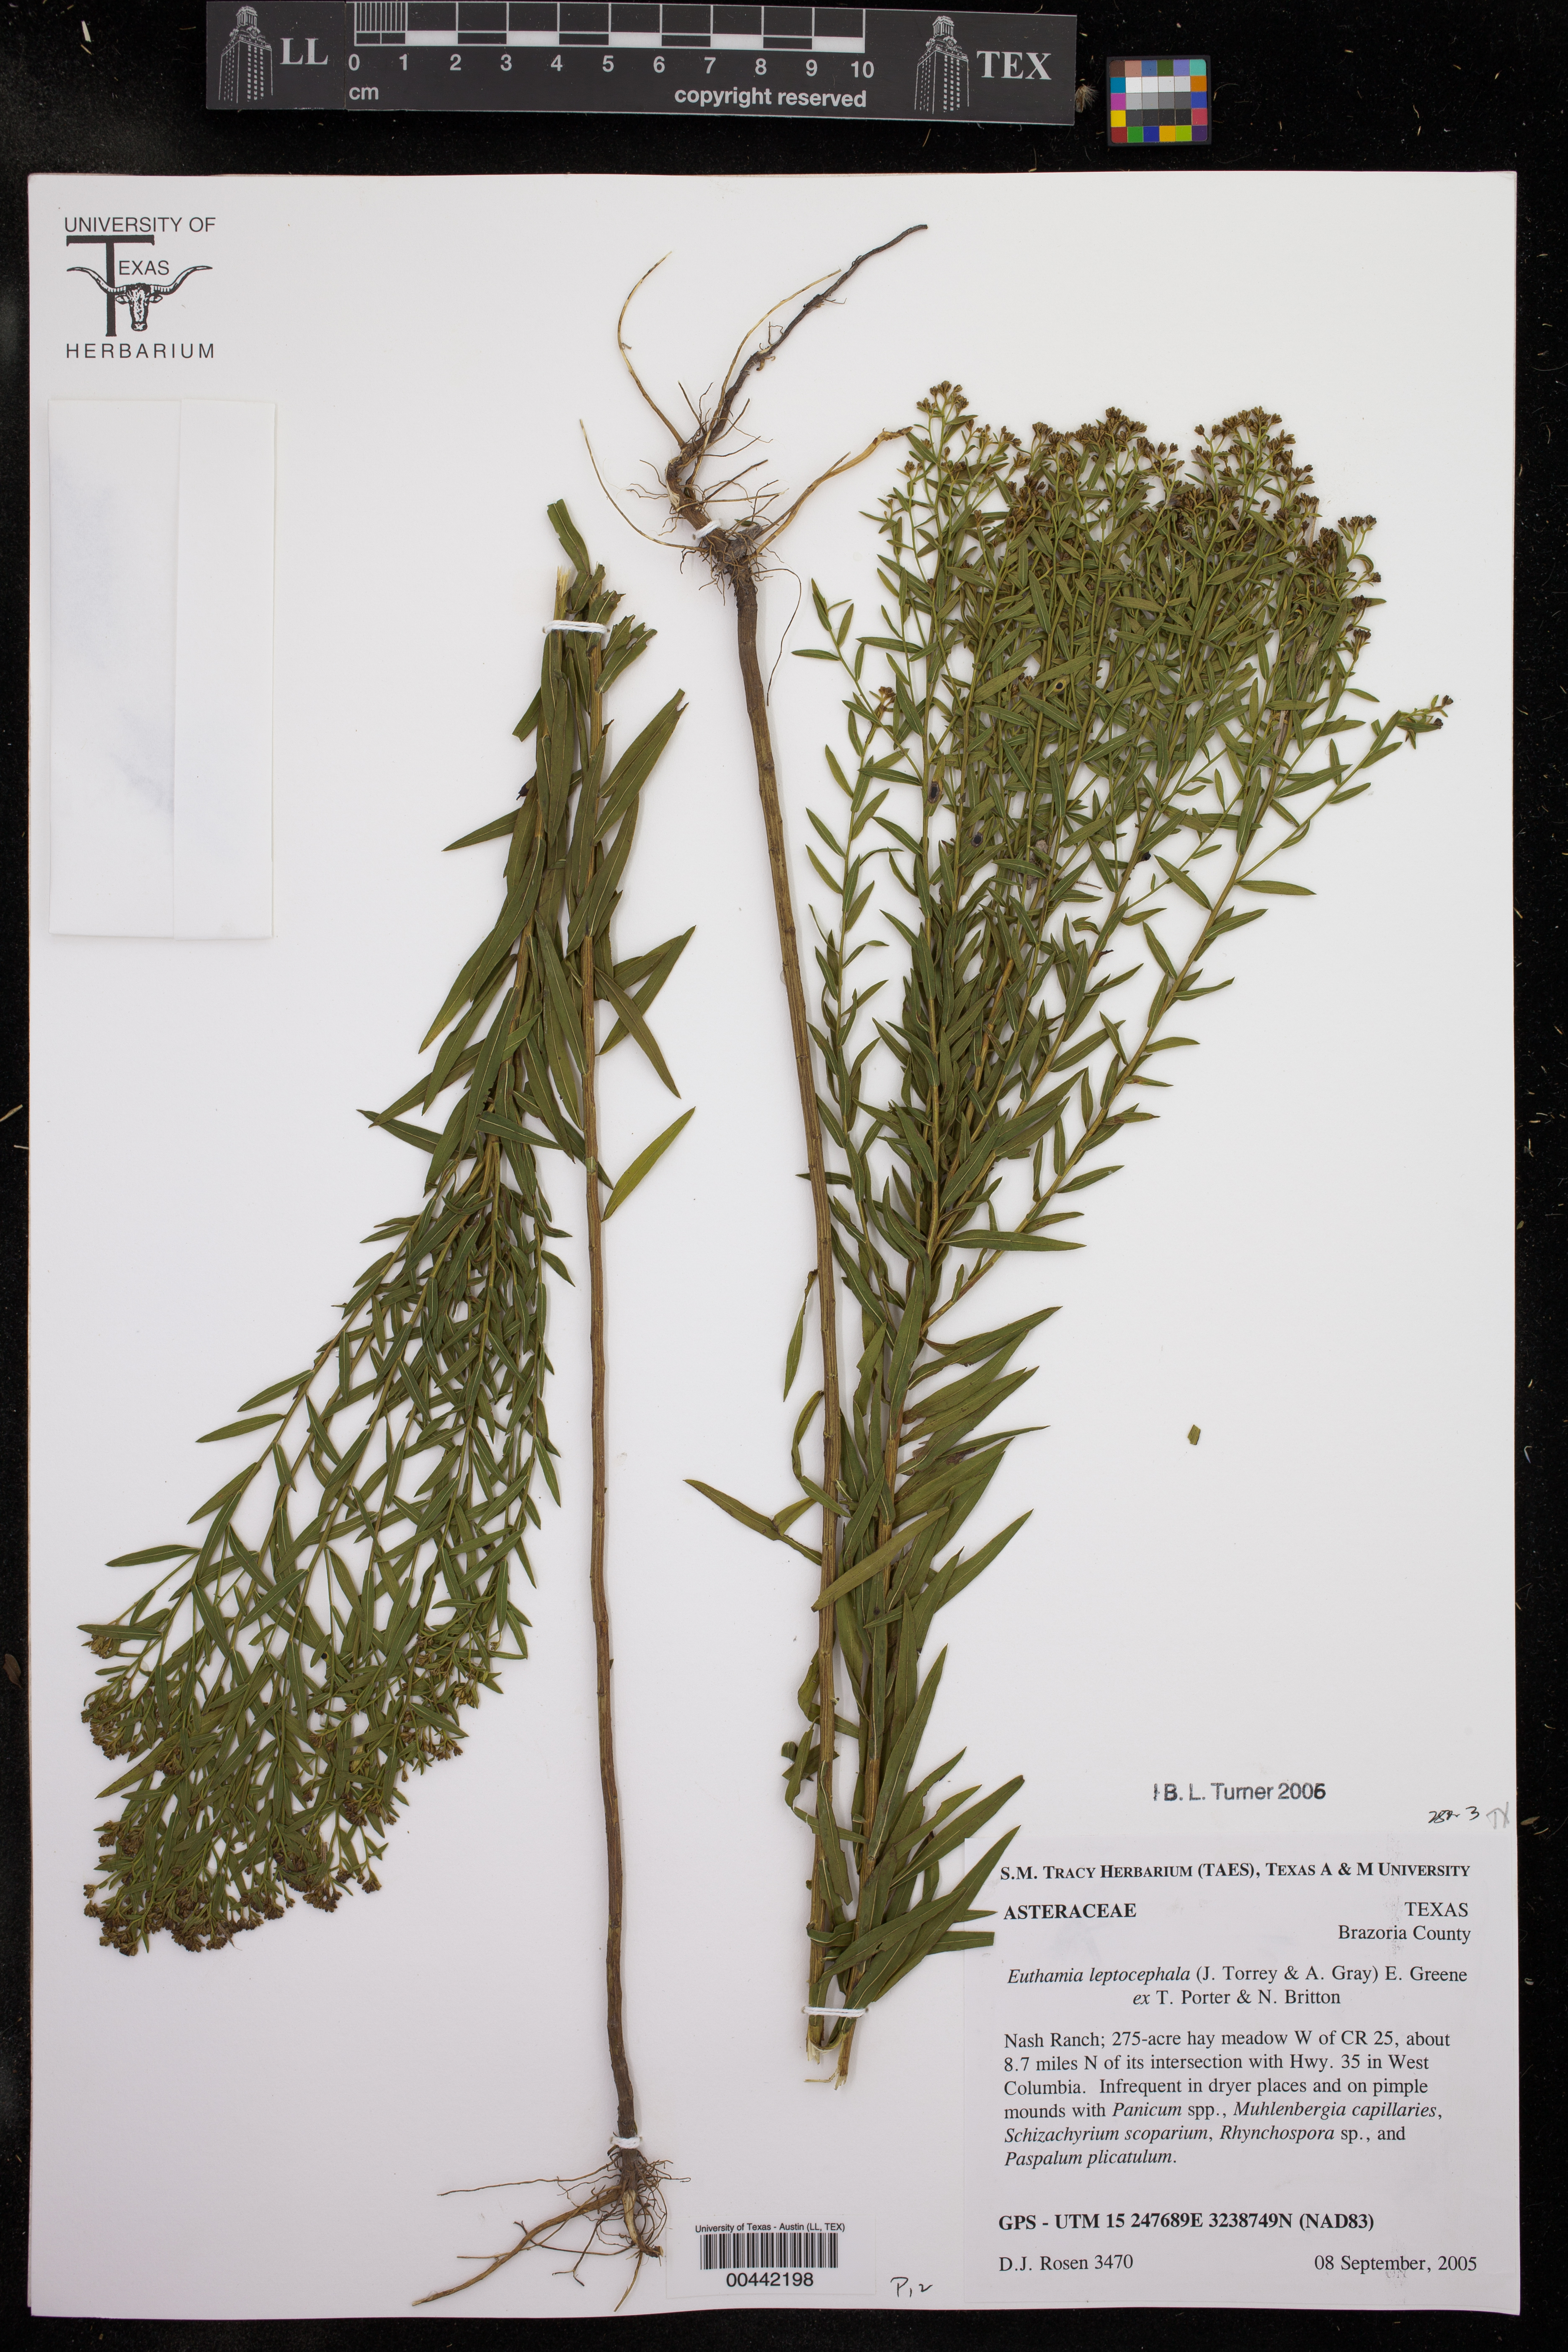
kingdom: Plantae
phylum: Tracheophyta
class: Magnoliopsida
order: Asterales
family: Asteraceae
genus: Euthamia
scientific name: Euthamia leptocephala
